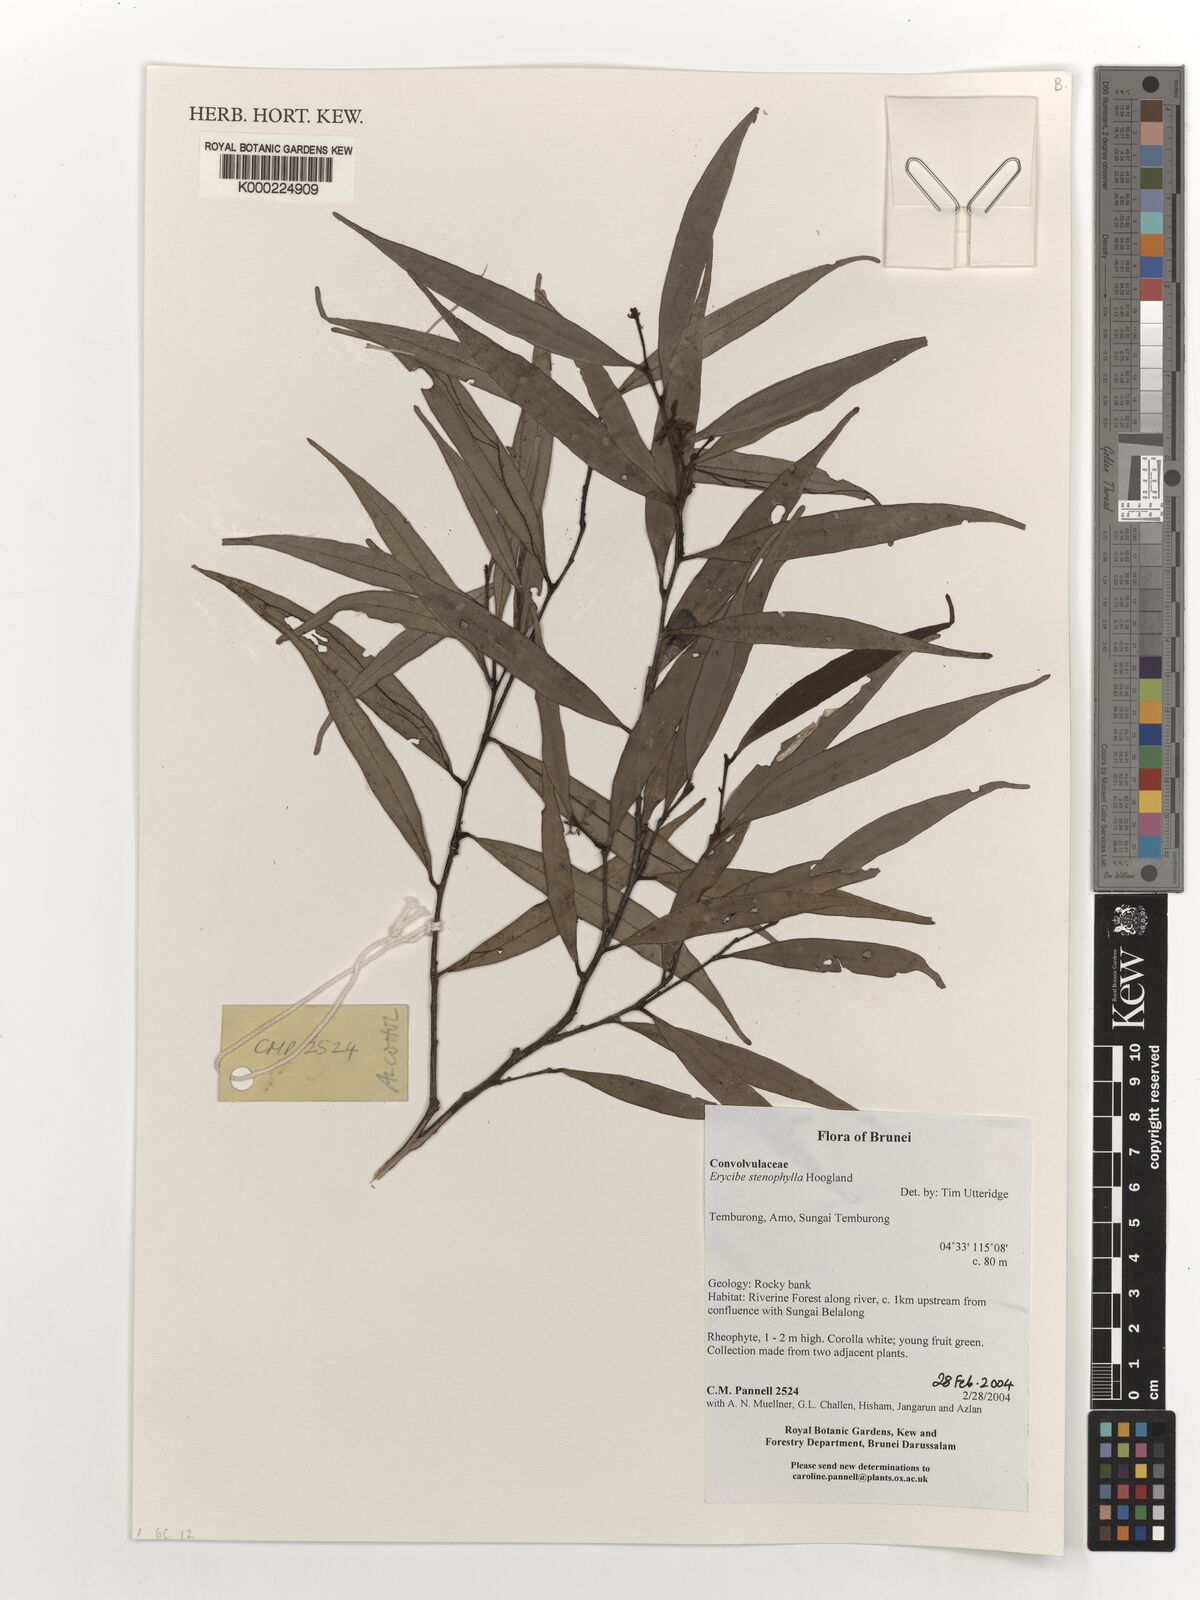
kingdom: Plantae
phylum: Tracheophyta
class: Magnoliopsida
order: Solanales
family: Convolvulaceae
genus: Erycibe
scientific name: Erycibe stenophylla
